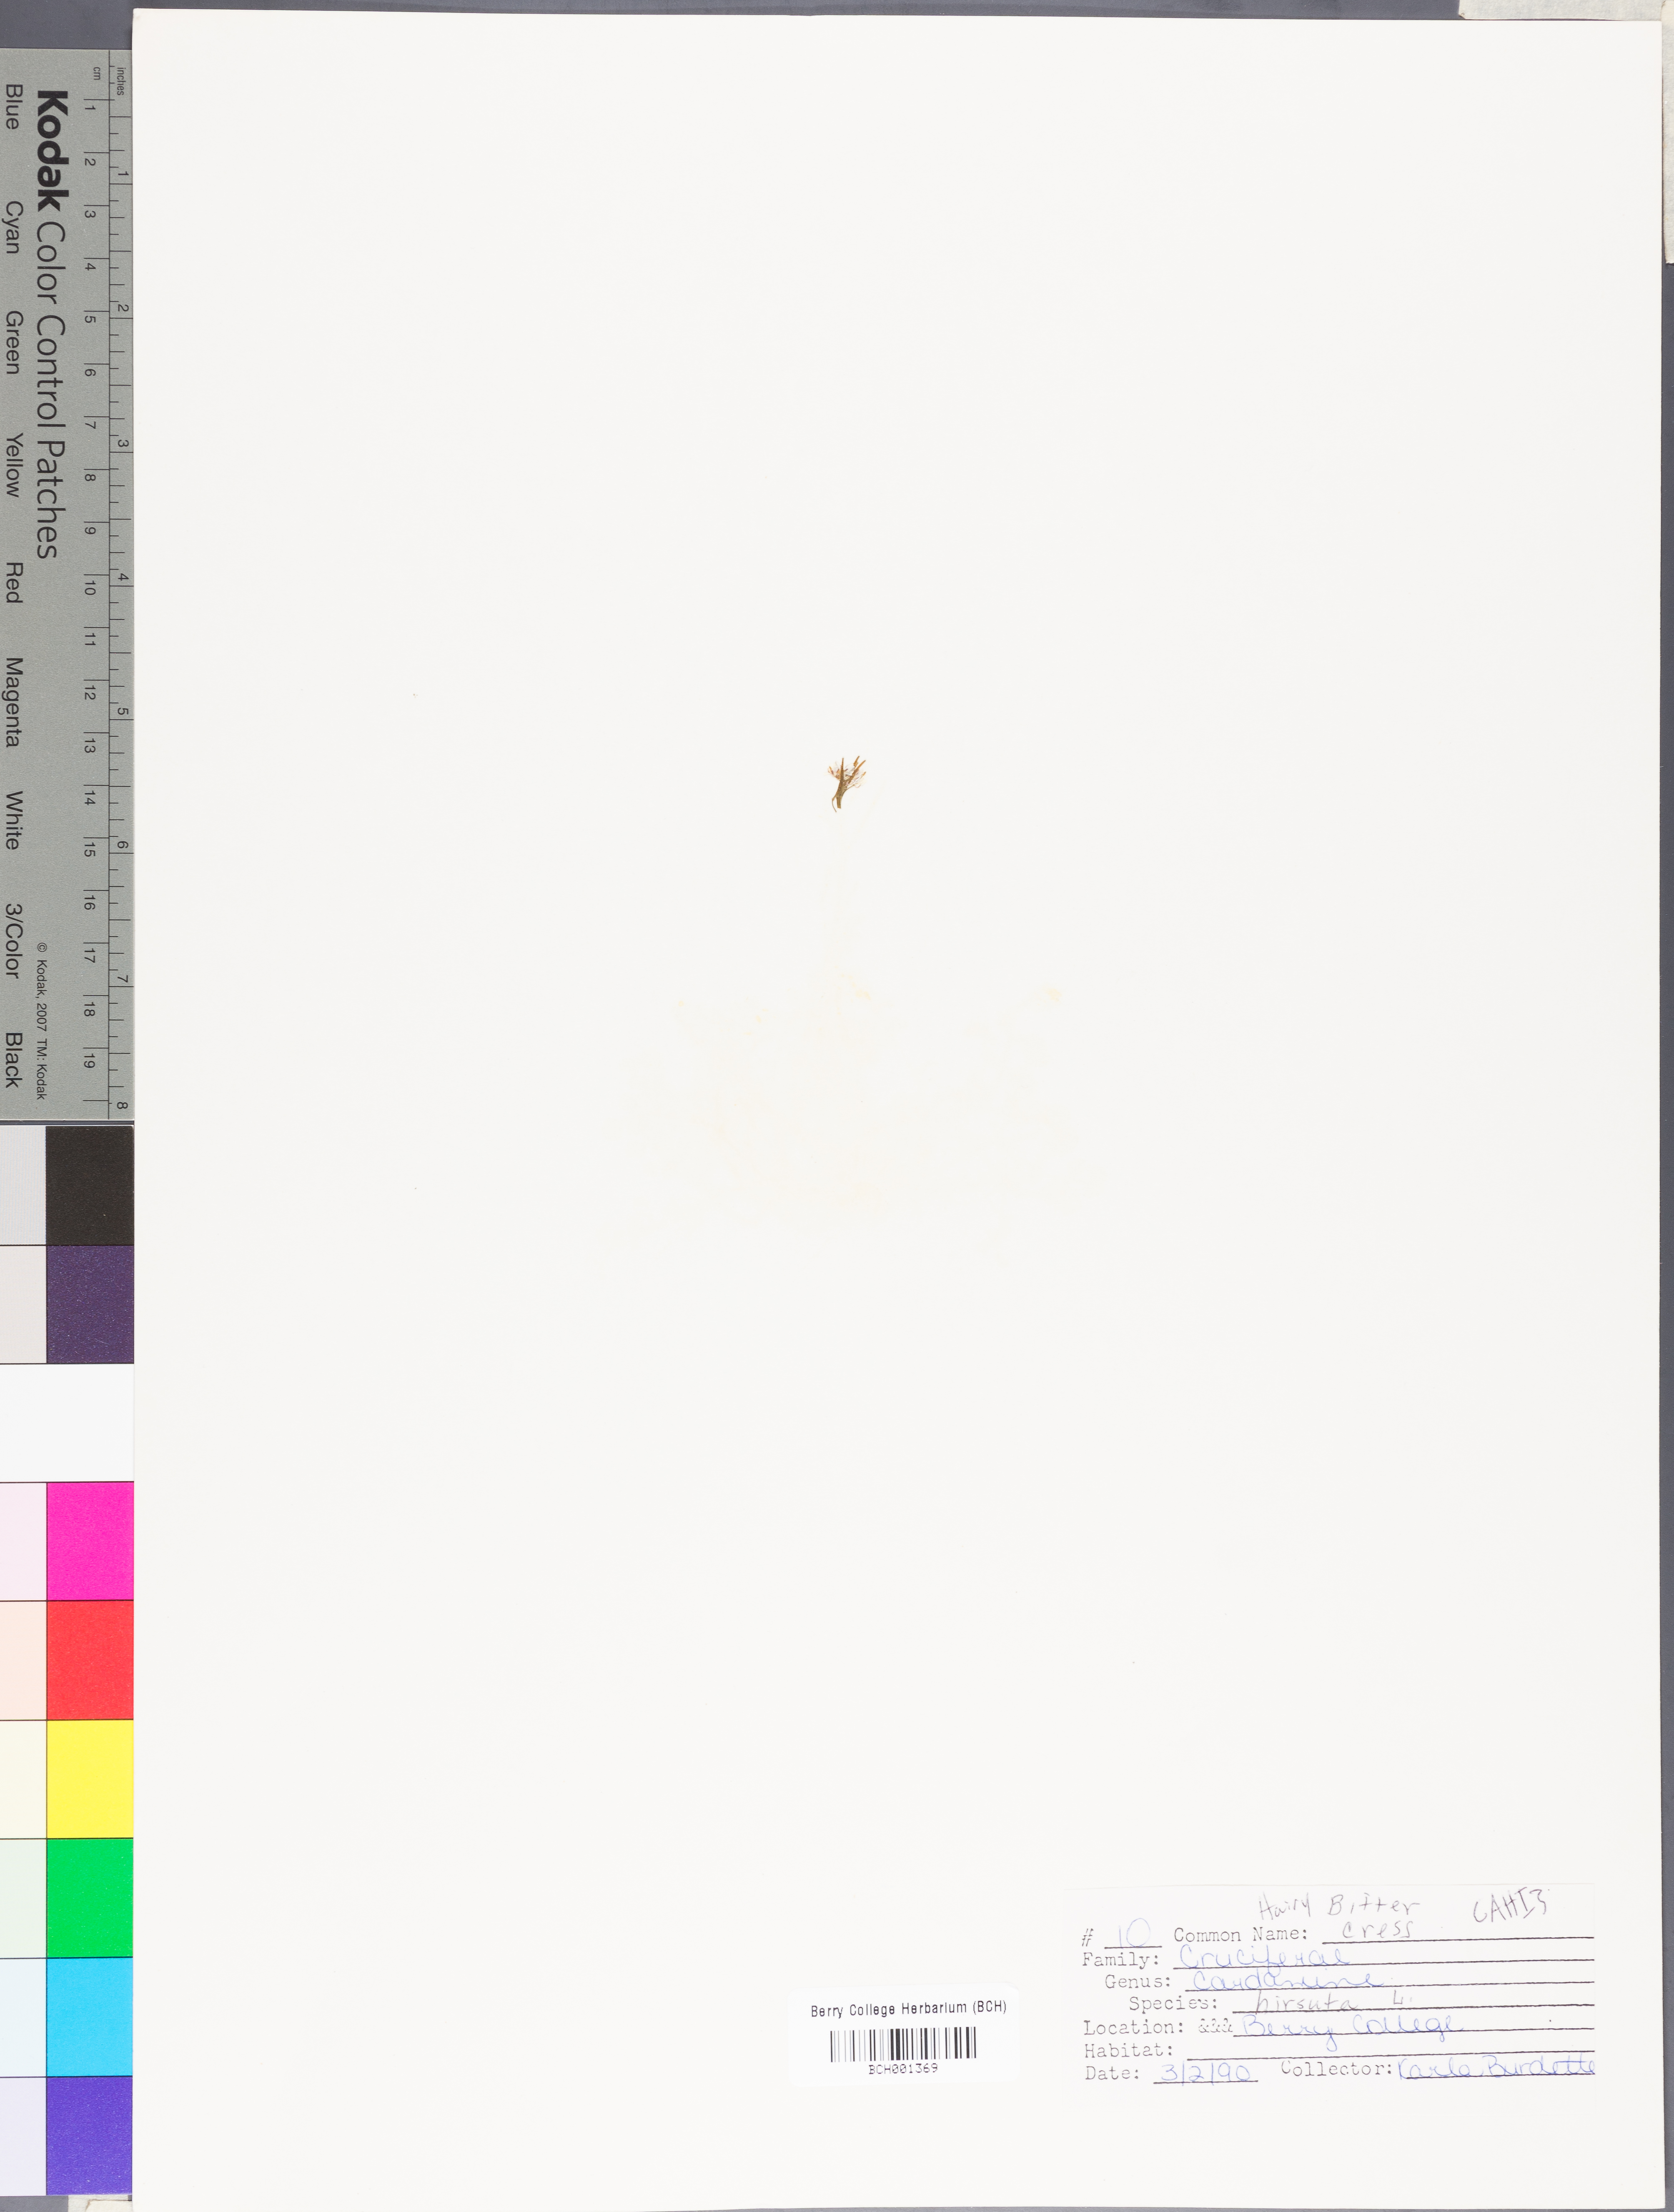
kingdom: Plantae
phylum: Tracheophyta
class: Magnoliopsida
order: Brassicales
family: Brassicaceae
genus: Cardamine
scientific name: Cardamine hirsuta
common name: Hairy bittercress
